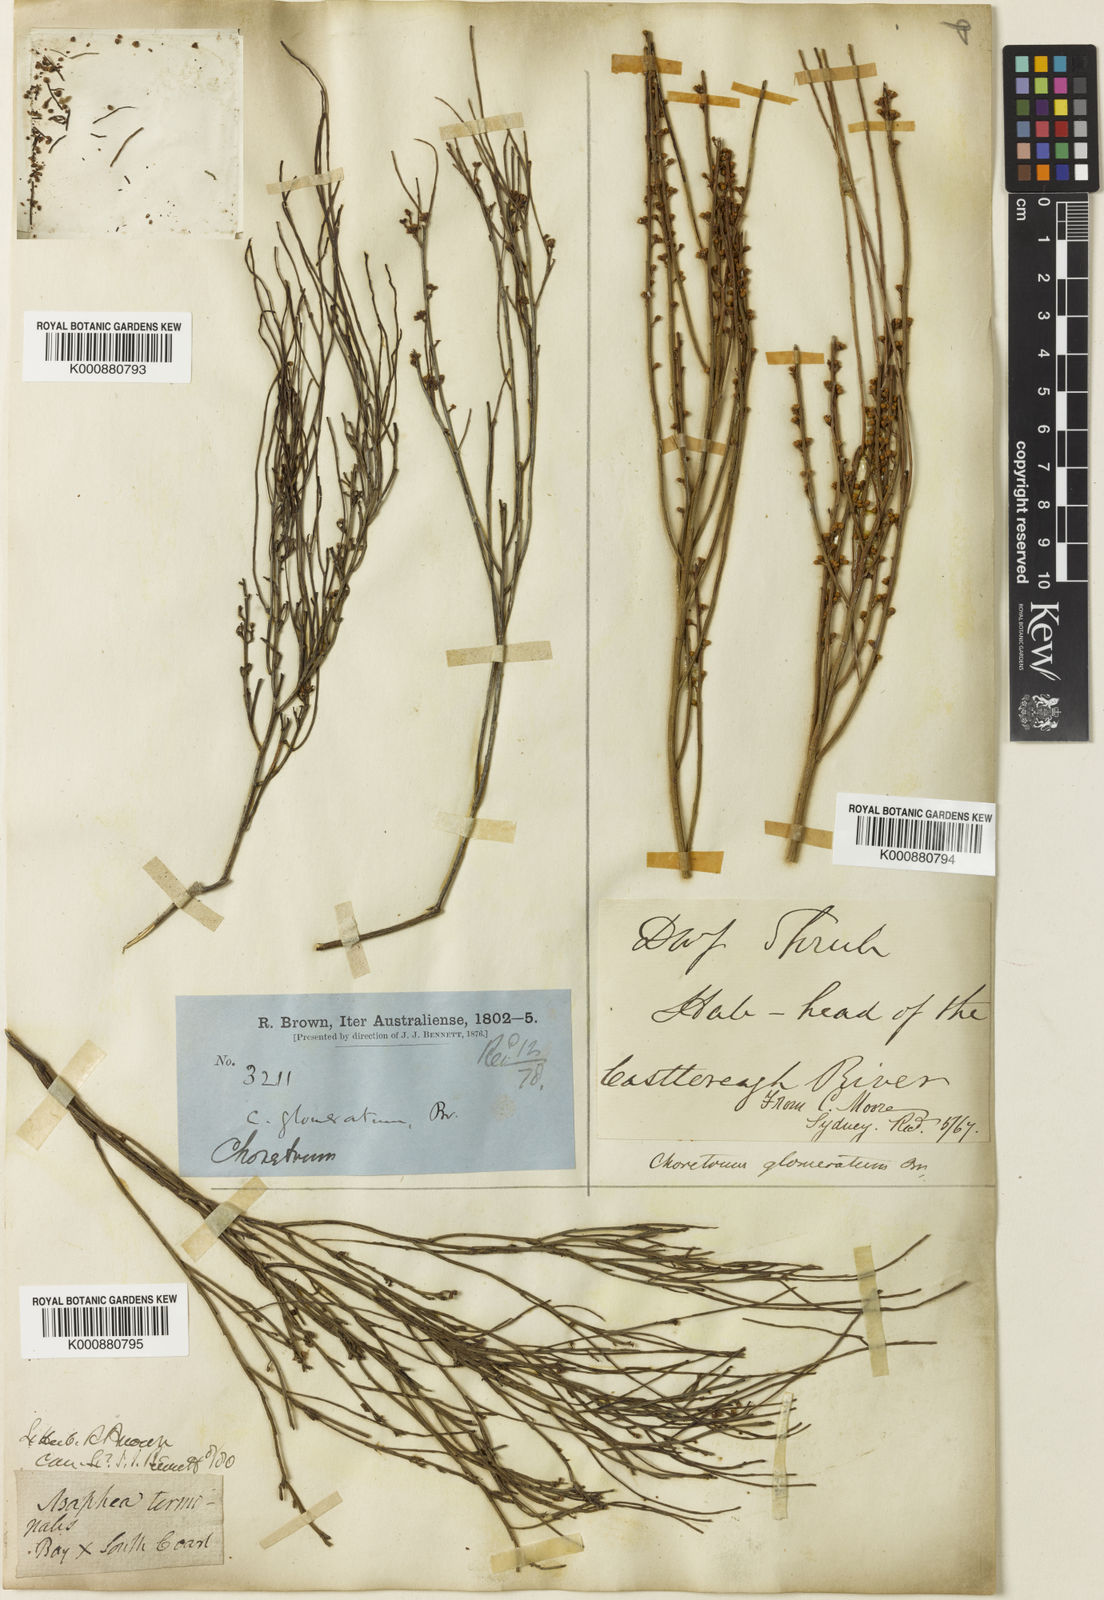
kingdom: Plantae
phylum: Tracheophyta
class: Magnoliopsida
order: Santalales
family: Amphorogynaceae
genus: Choretrum
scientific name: Choretrum glomeratum
